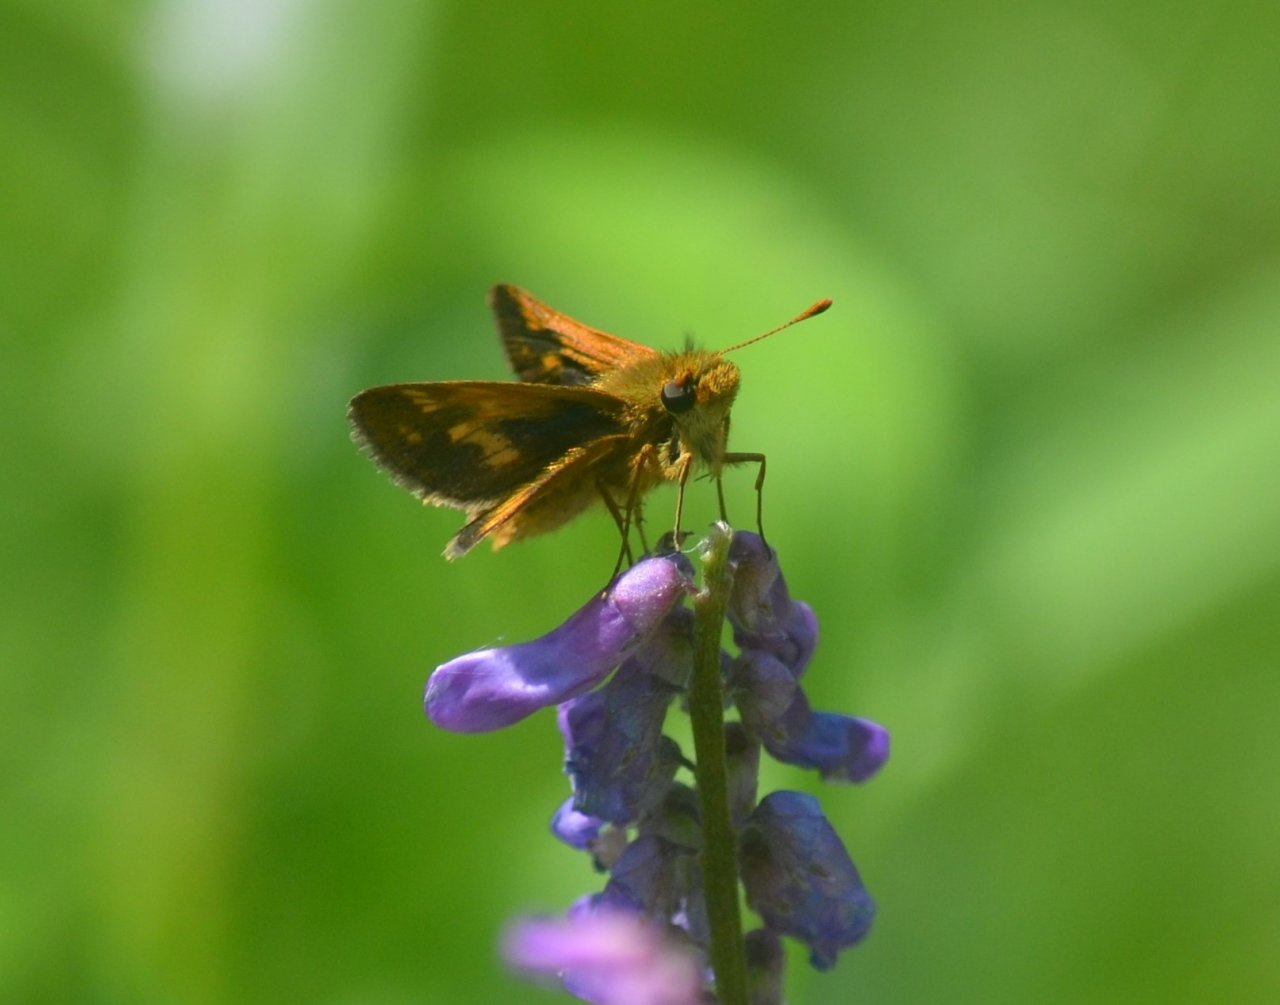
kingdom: Animalia
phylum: Arthropoda
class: Insecta
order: Lepidoptera
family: Hesperiidae
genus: Polites
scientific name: Polites themistocles
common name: Tawny-edged Skipper
